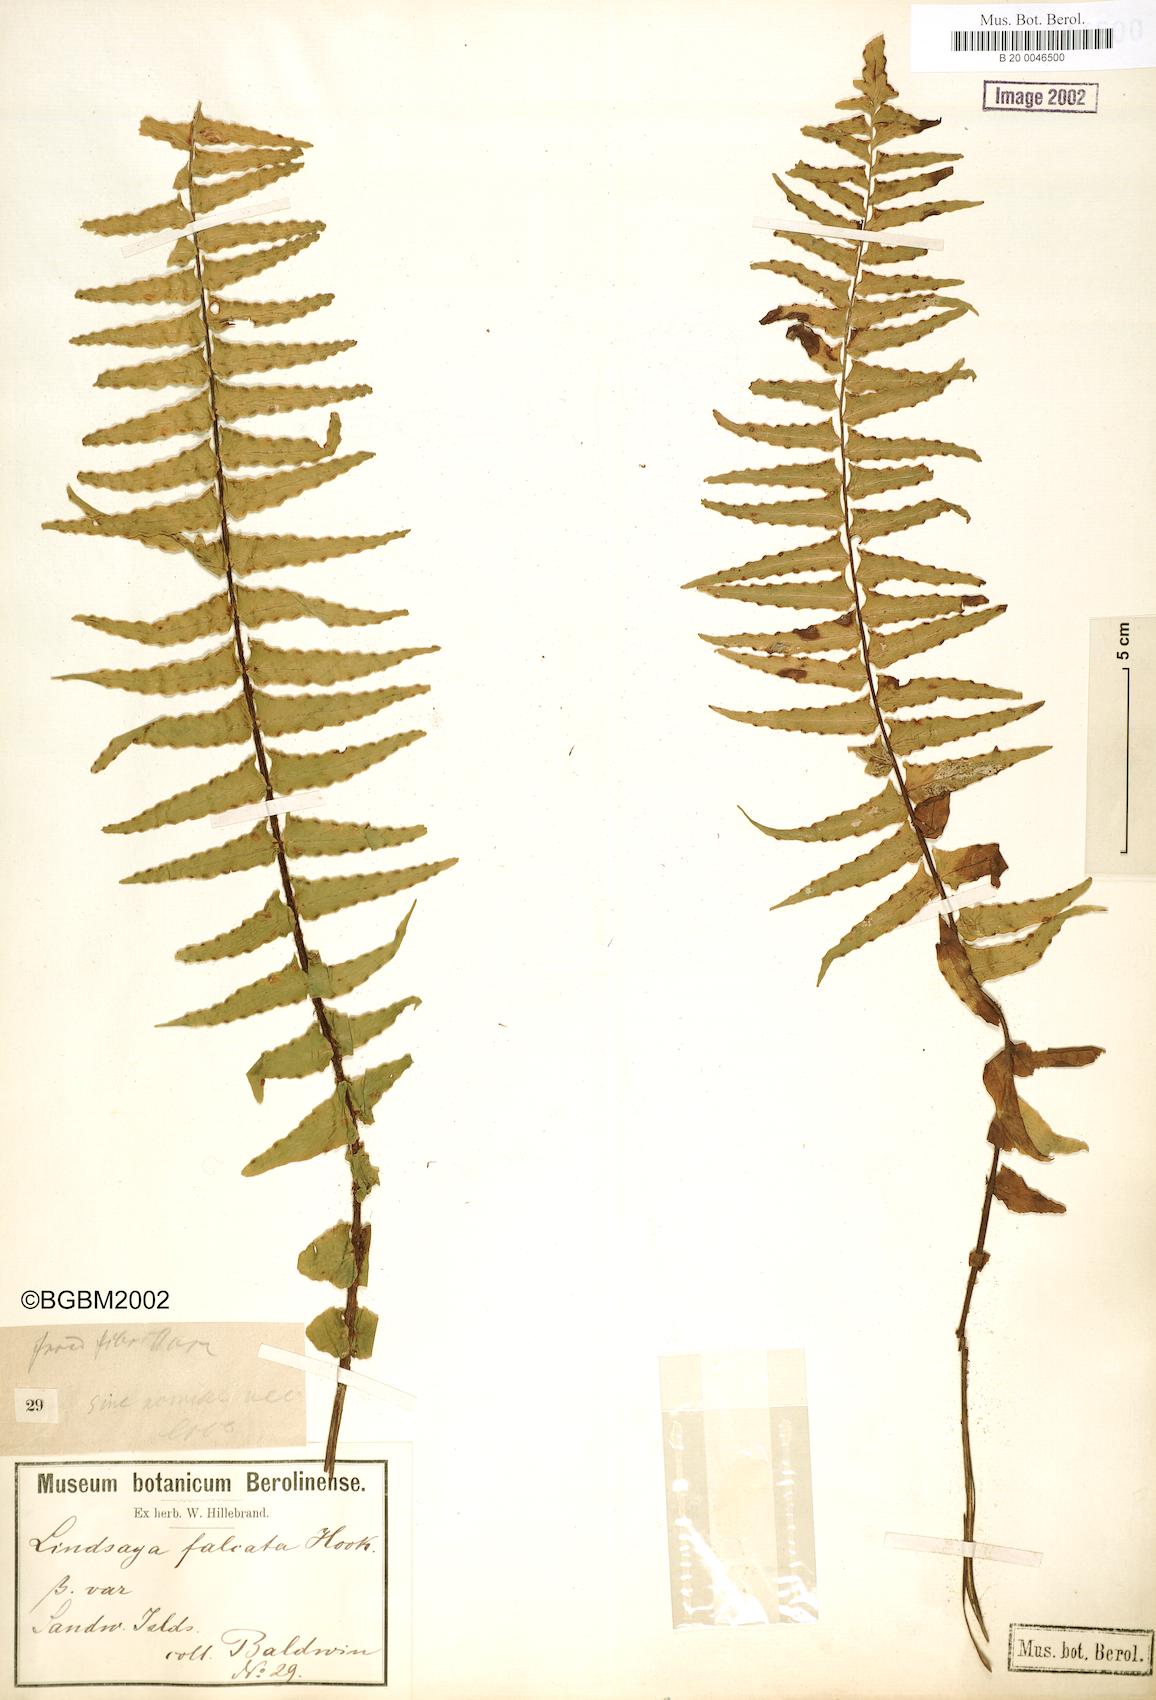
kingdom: Plantae
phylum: Tracheophyta
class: Polypodiopsida
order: Polypodiales
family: Aspleniaceae
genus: Asplenium
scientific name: Asplenium dielfalcatum
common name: Sickle island spleenwort
